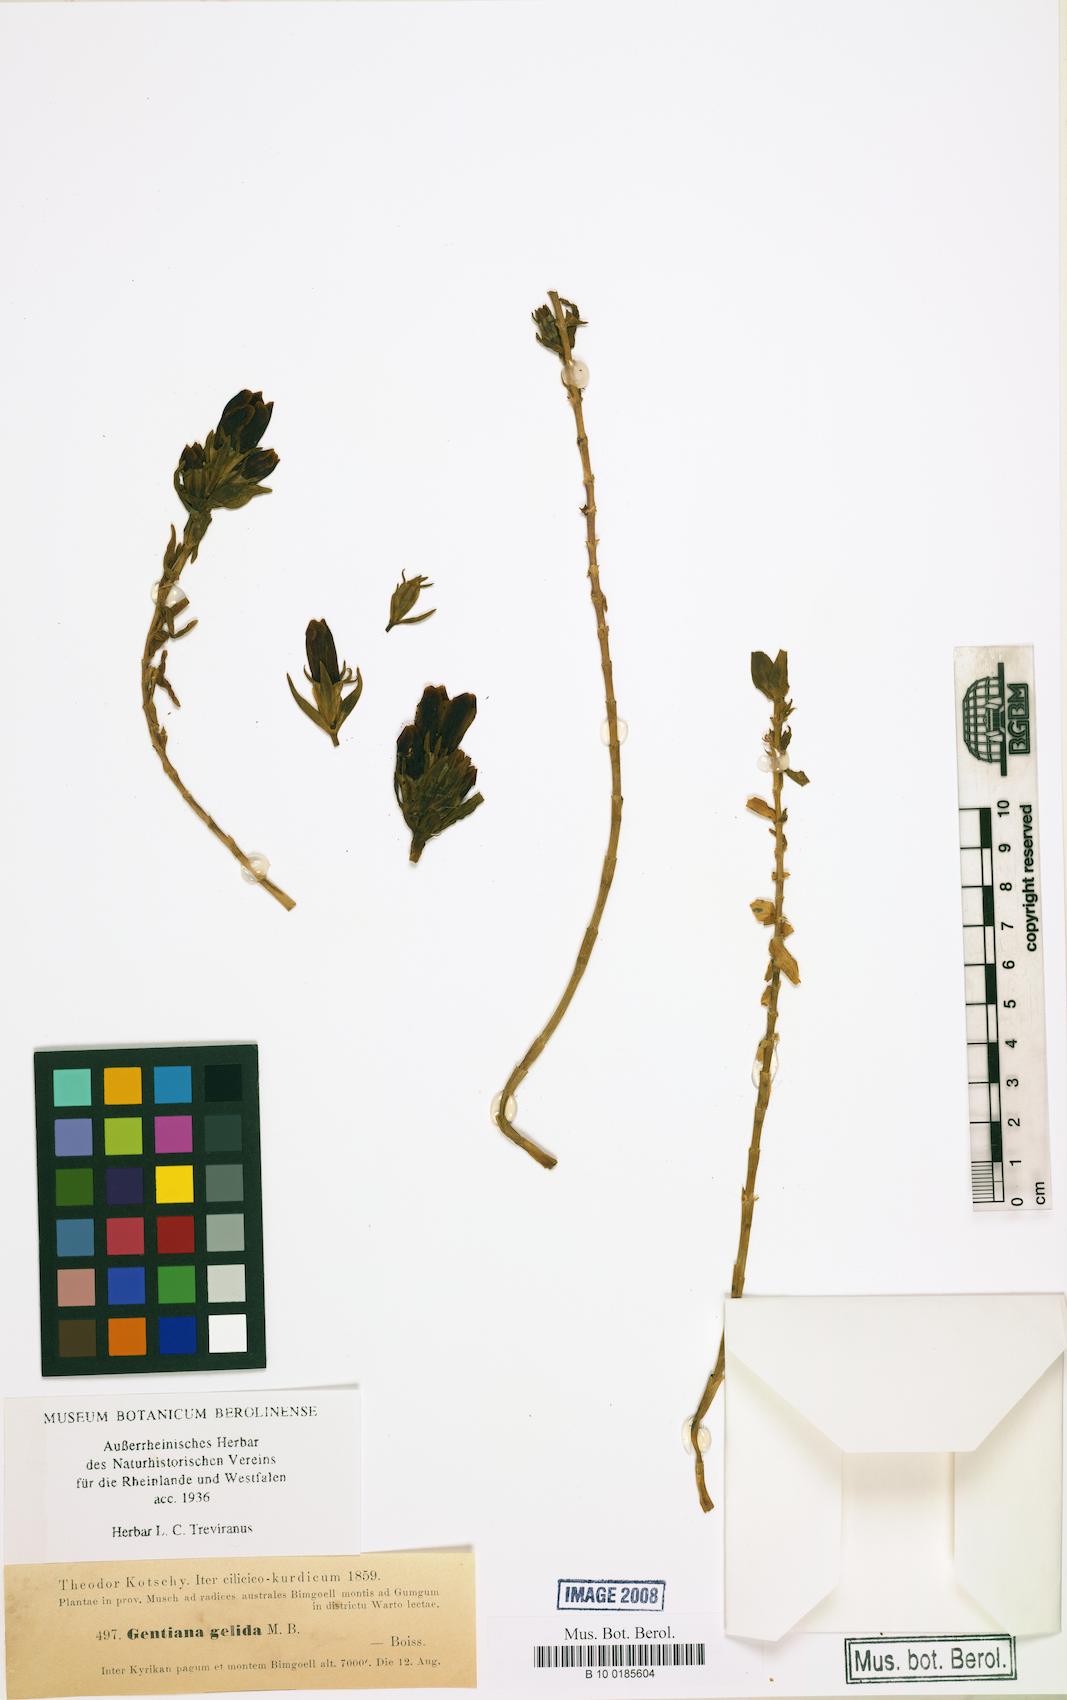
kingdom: Plantae
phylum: Tracheophyta
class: Magnoliopsida
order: Gentianales
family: Gentianaceae
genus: Gentiana
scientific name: Gentiana gelida
